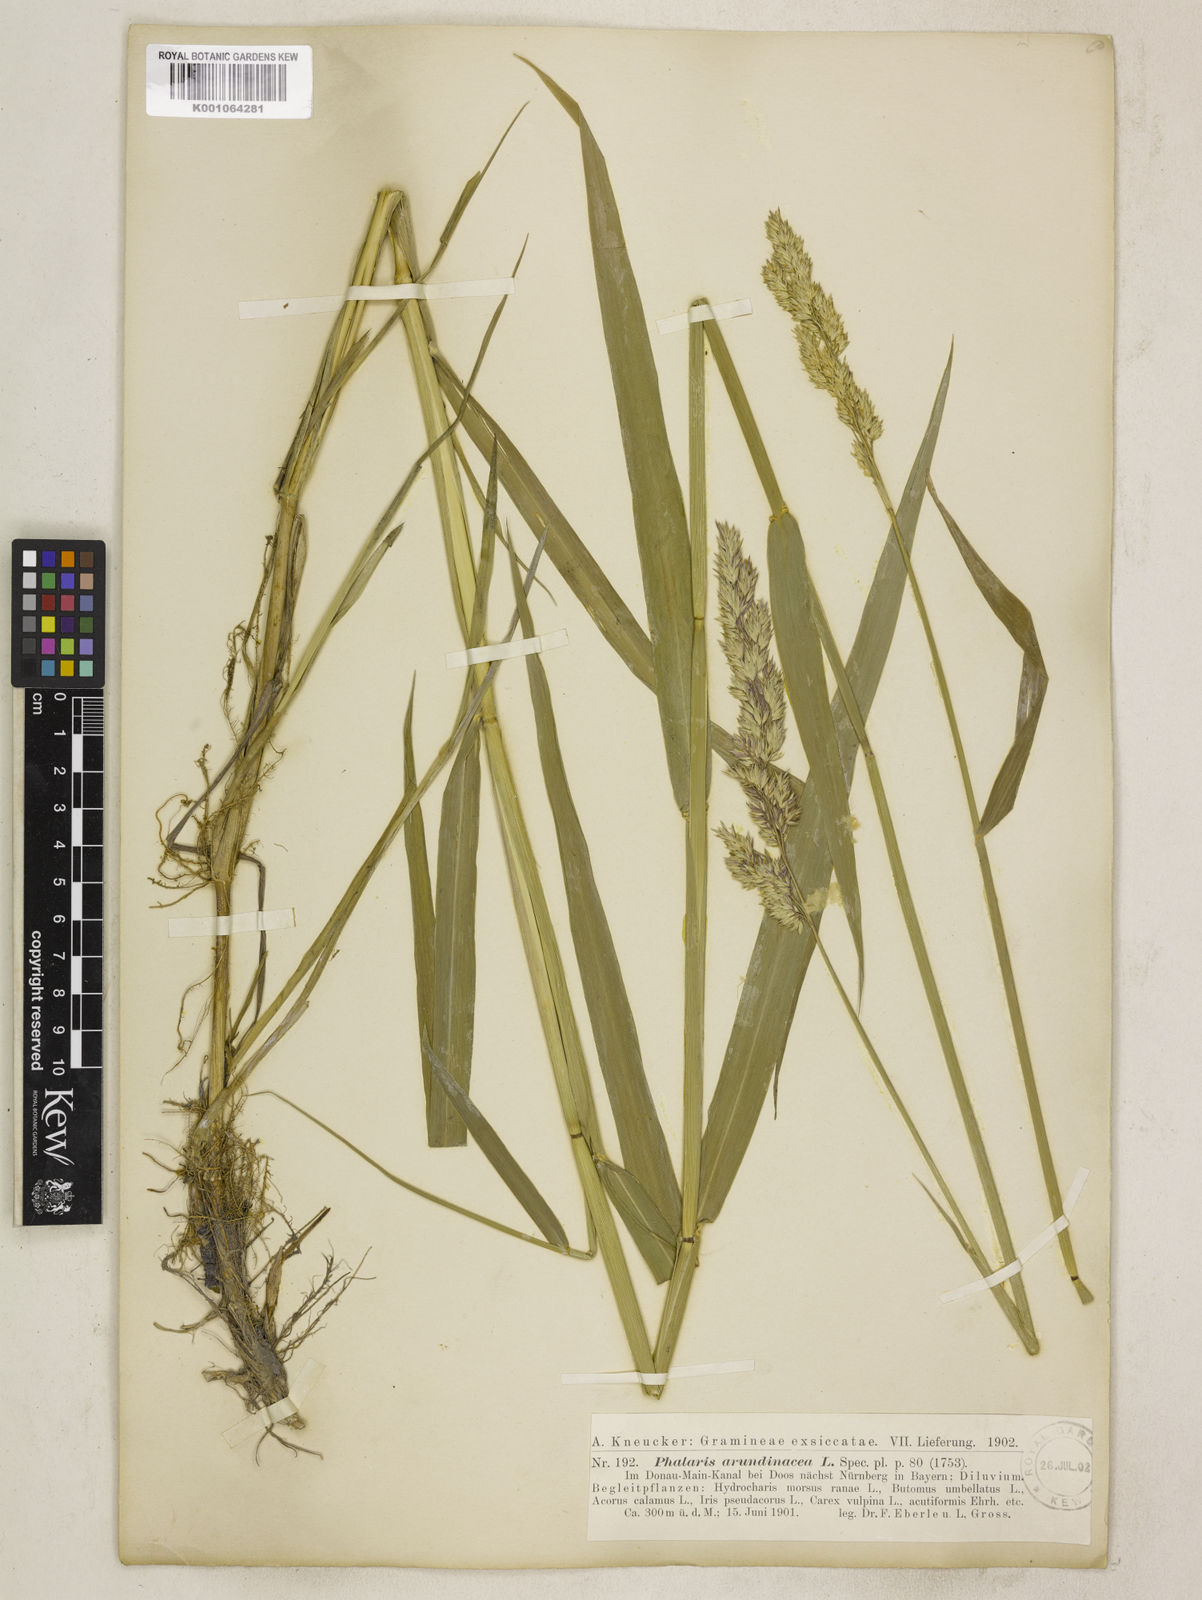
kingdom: Plantae
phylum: Tracheophyta
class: Liliopsida
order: Poales
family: Poaceae
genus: Phalaris
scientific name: Phalaris arundinacea
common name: Reed canary-grass
